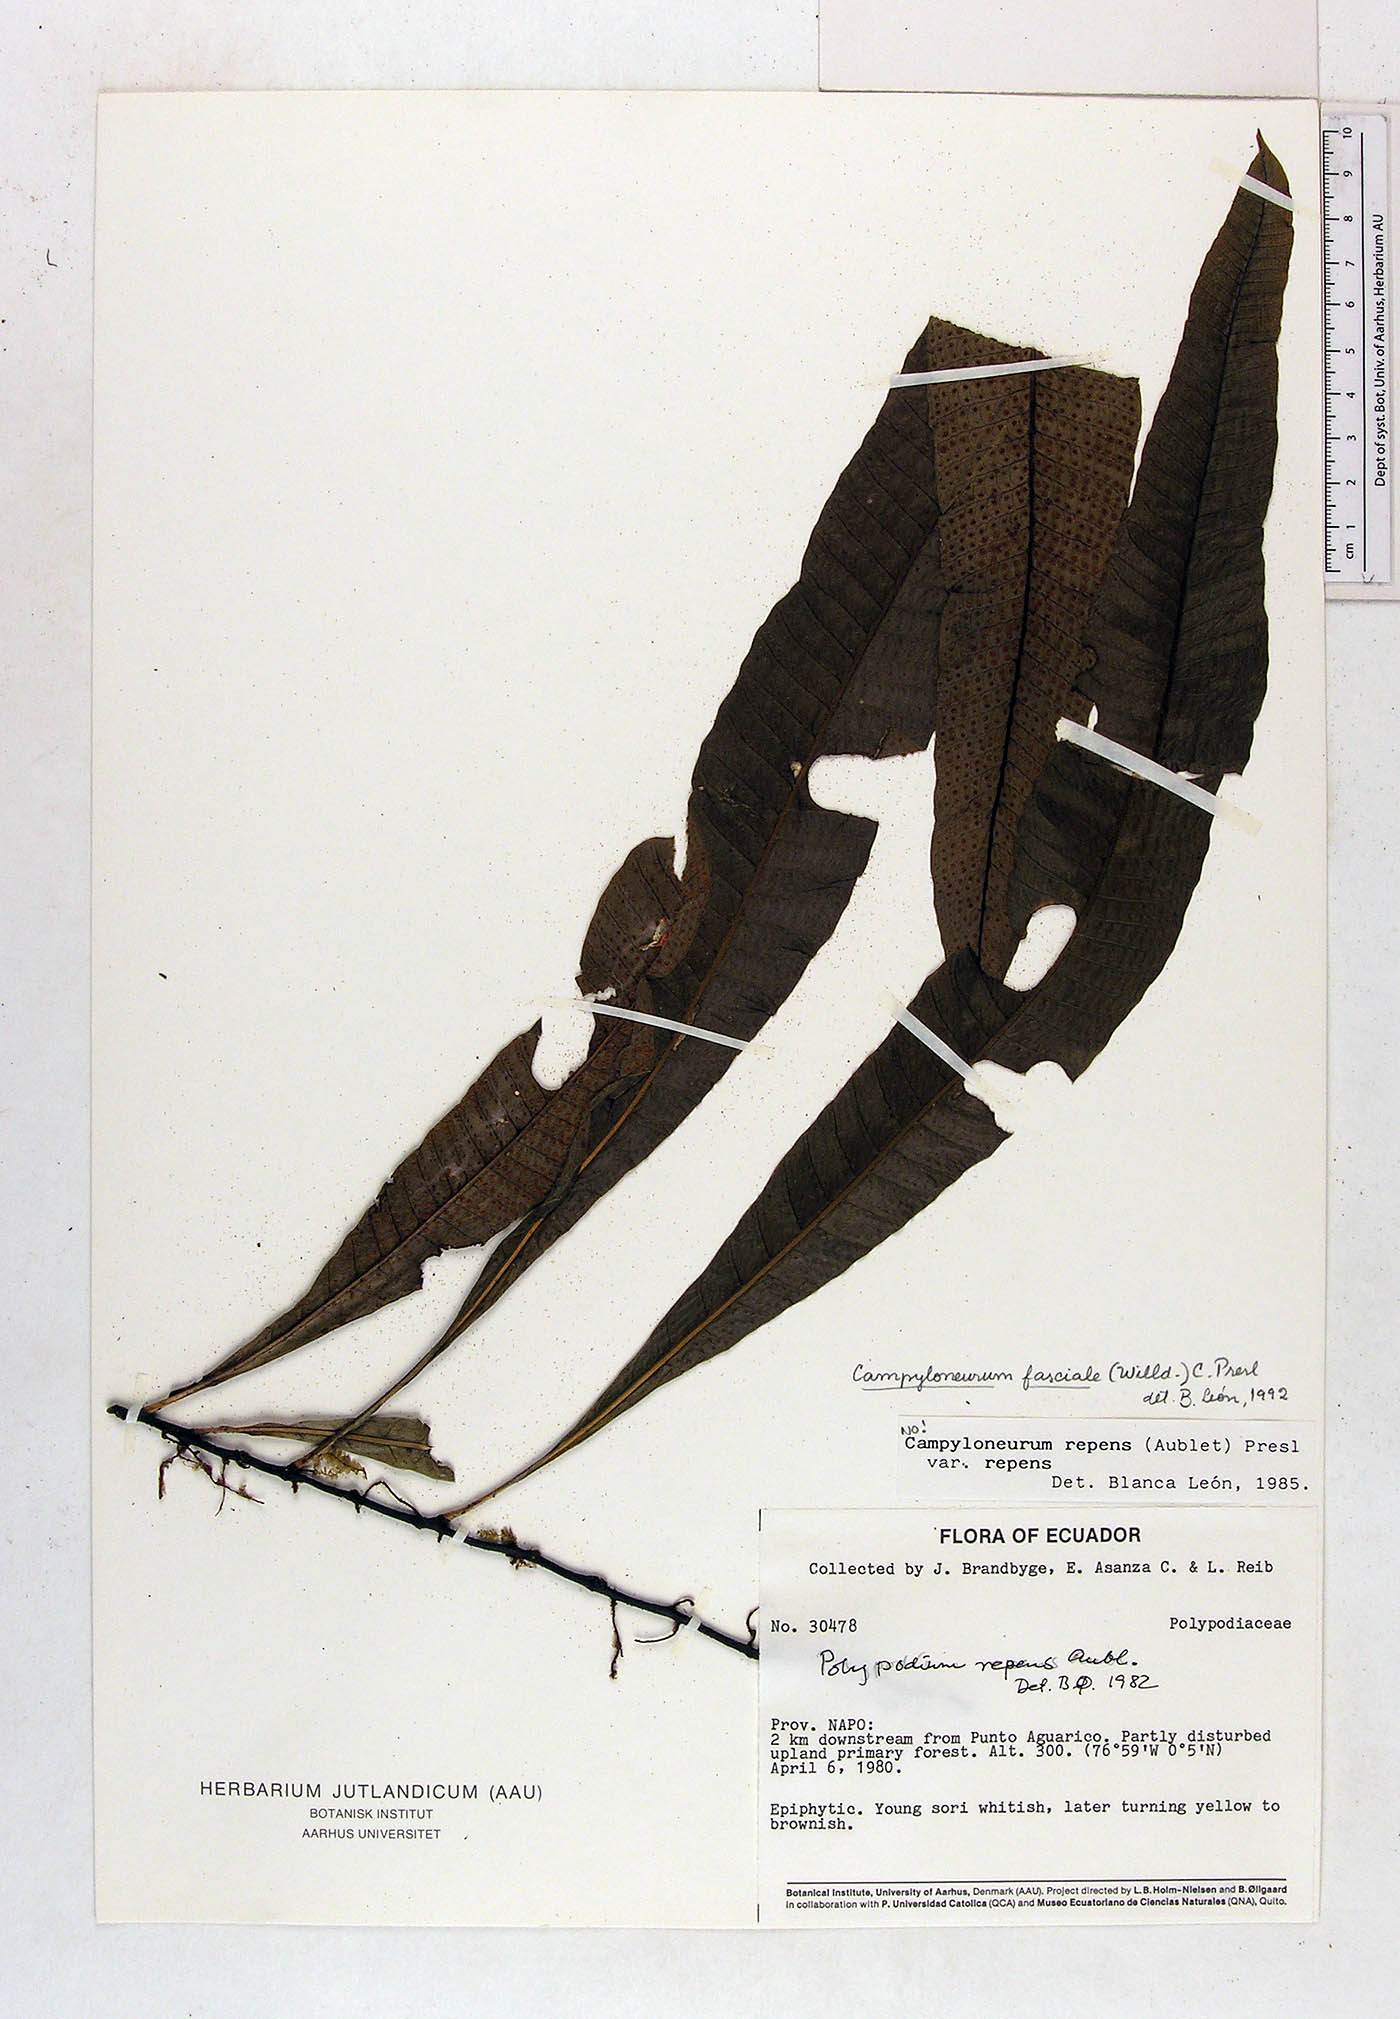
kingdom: Plantae
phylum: Tracheophyta
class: Polypodiopsida
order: Polypodiales
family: Polypodiaceae
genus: Campyloneurum
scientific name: Campyloneurum repens
